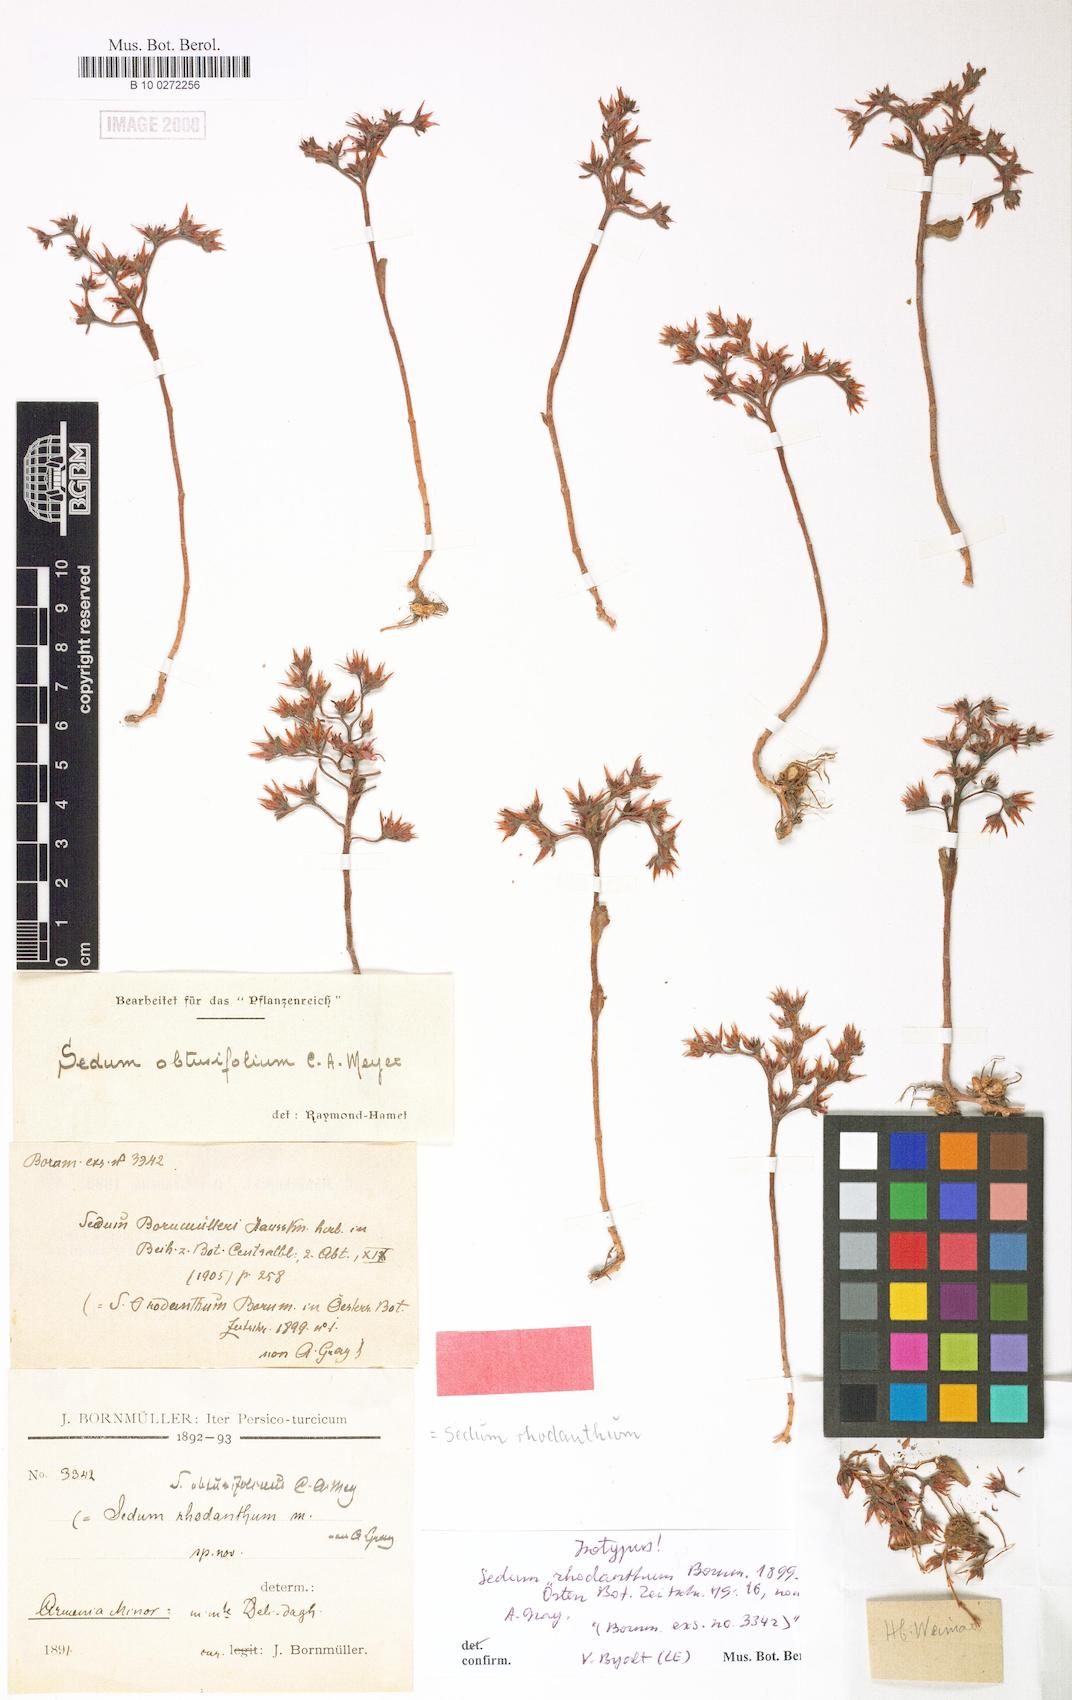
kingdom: Plantae
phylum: Tracheophyta
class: Magnoliopsida
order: Saxifragales
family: Crassulaceae
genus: Rhodiola
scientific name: Rhodiola rhodantha
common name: Red orpine
